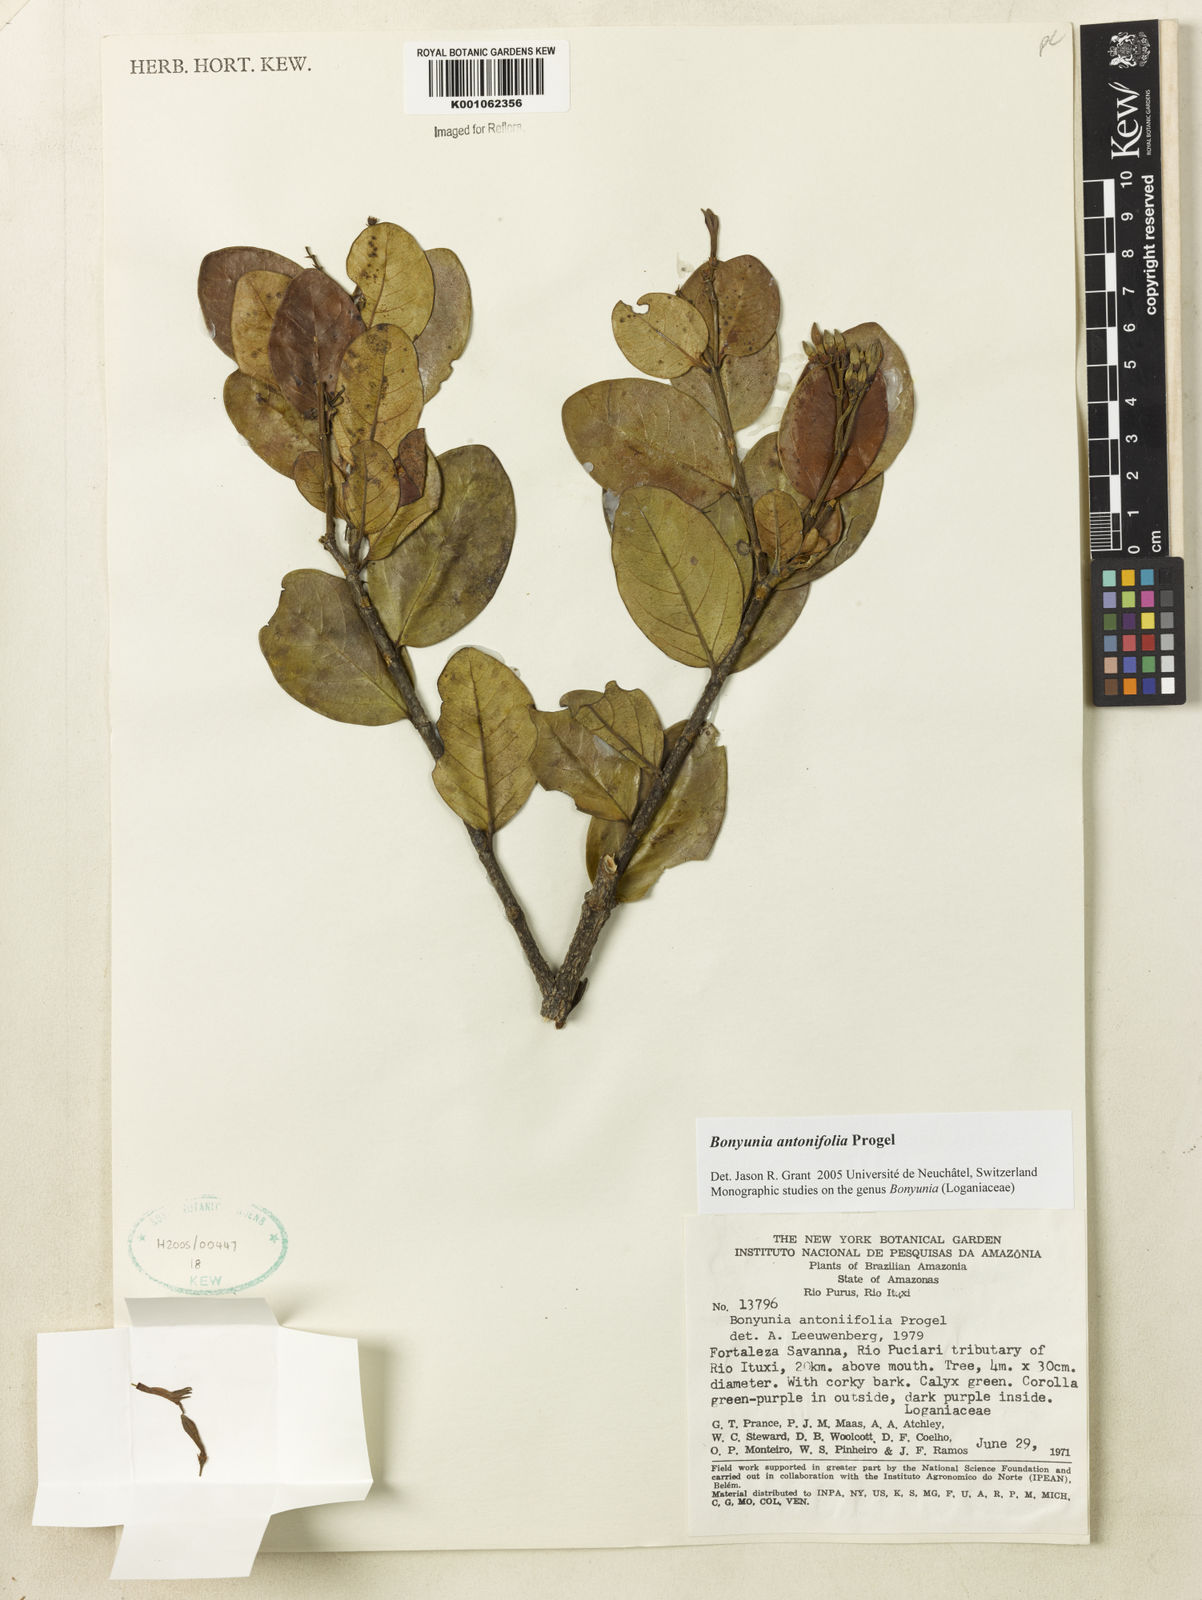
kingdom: Plantae
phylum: Tracheophyta
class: Magnoliopsida
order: Gentianales
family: Loganiaceae
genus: Bonyunia
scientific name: Bonyunia antoniifolia
